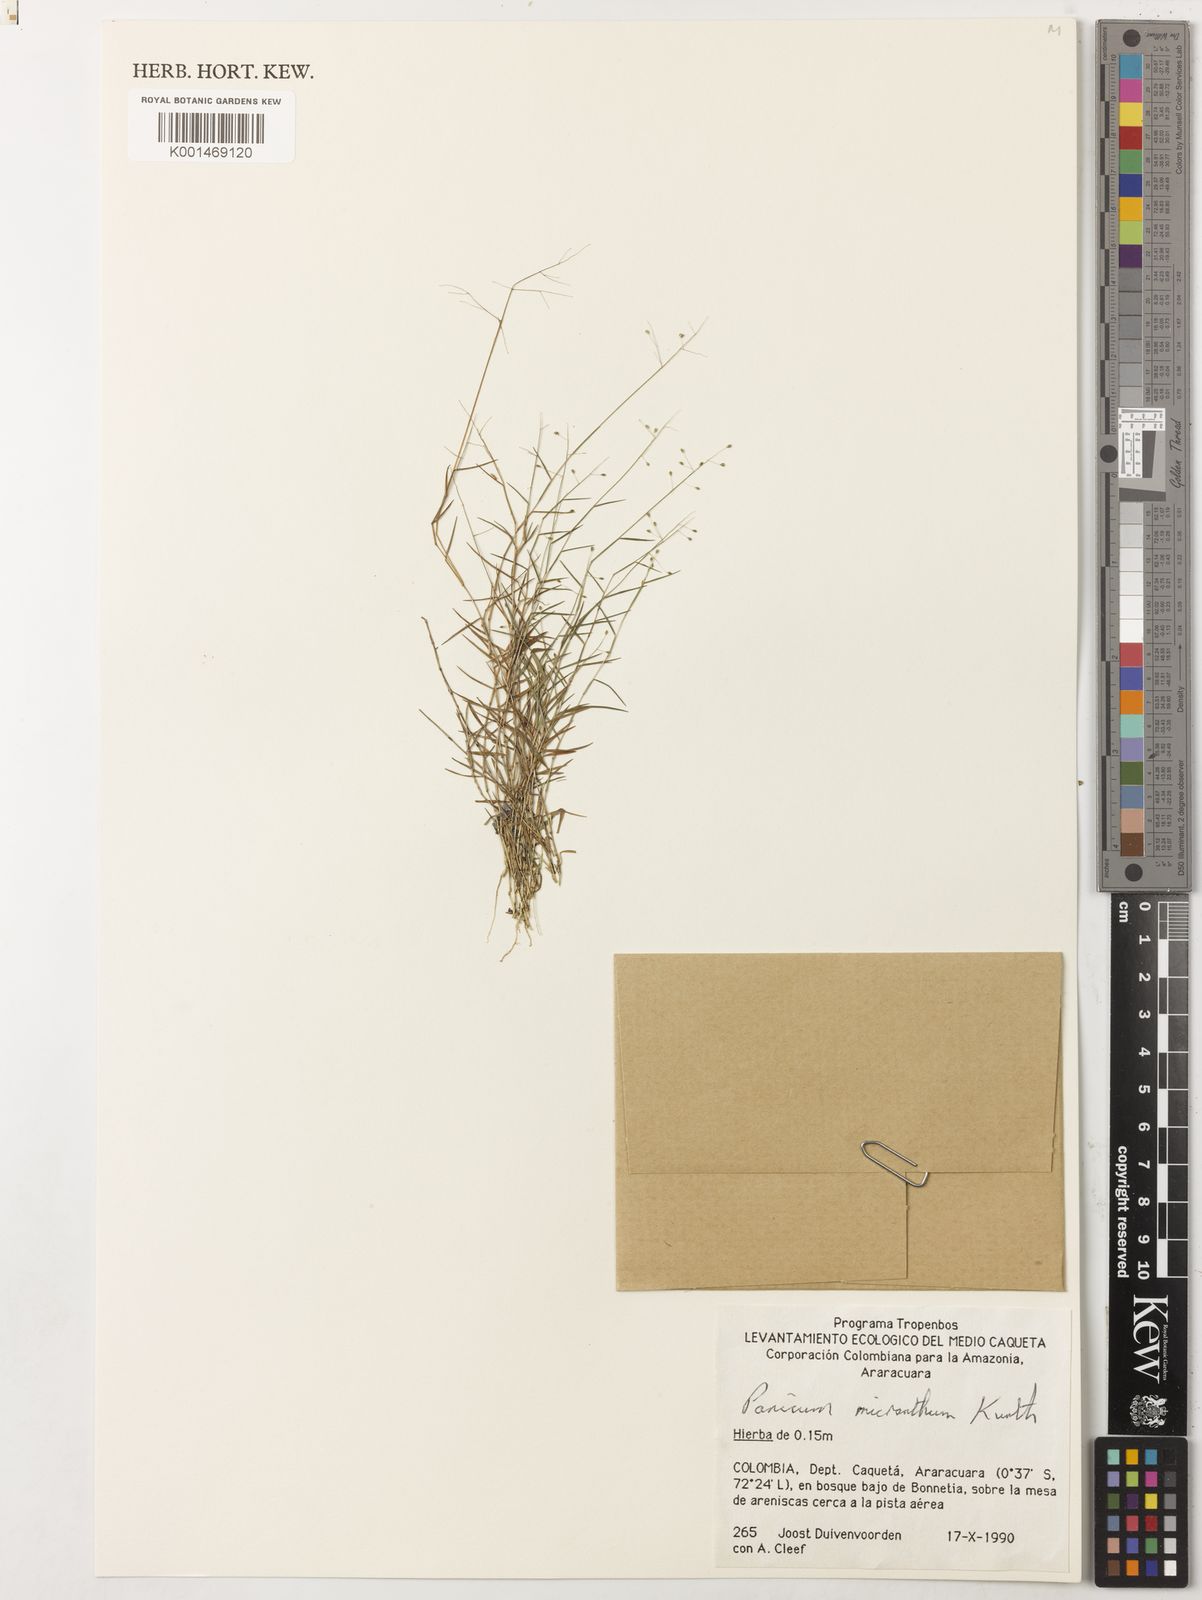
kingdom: Plantae
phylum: Tracheophyta
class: Liliopsida
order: Poales
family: Poaceae
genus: Trichanthecium
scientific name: Trichanthecium micranthum
